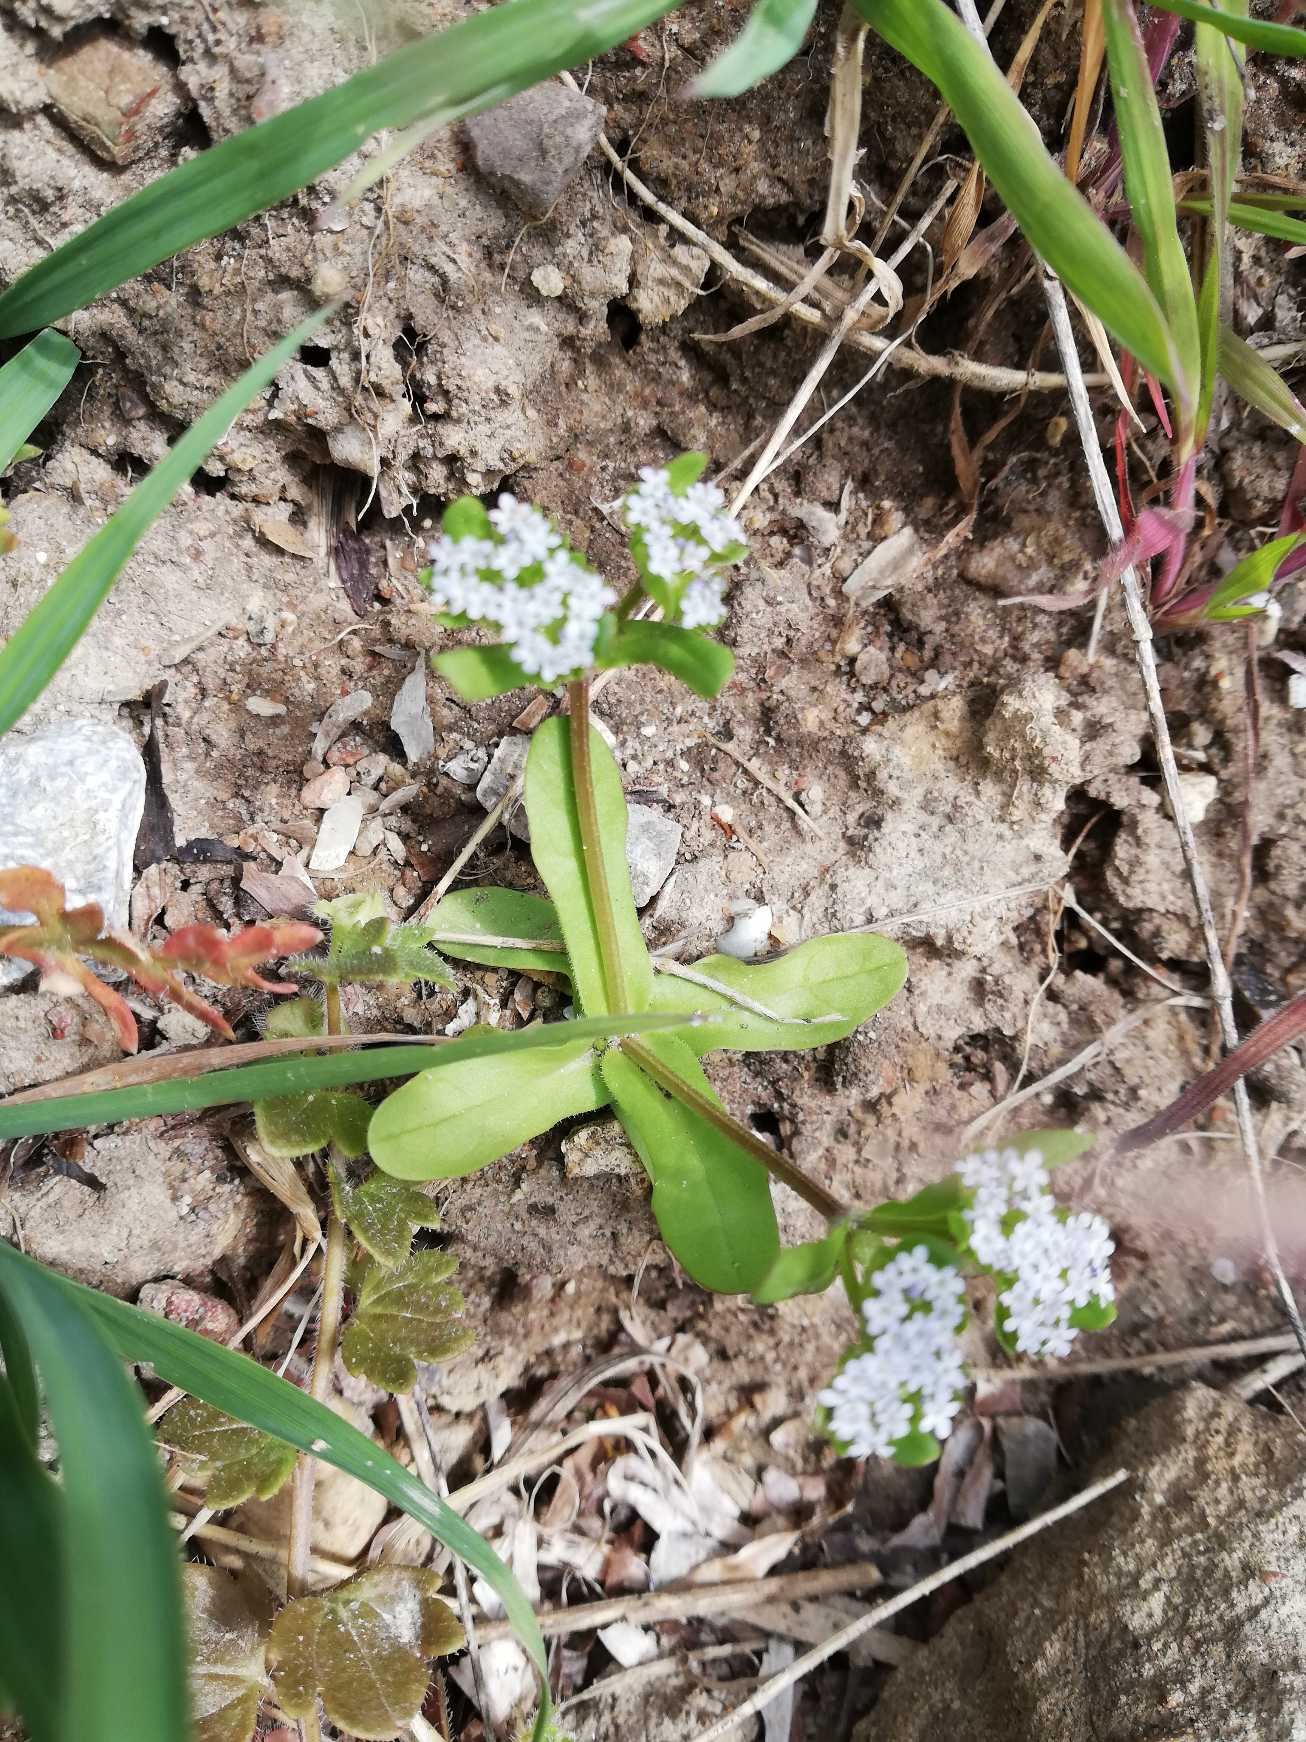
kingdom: Plantae
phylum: Tracheophyta
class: Magnoliopsida
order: Dipsacales
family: Caprifoliaceae
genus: Valerianella
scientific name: Valerianella locusta
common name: Tandfri vårsalat
